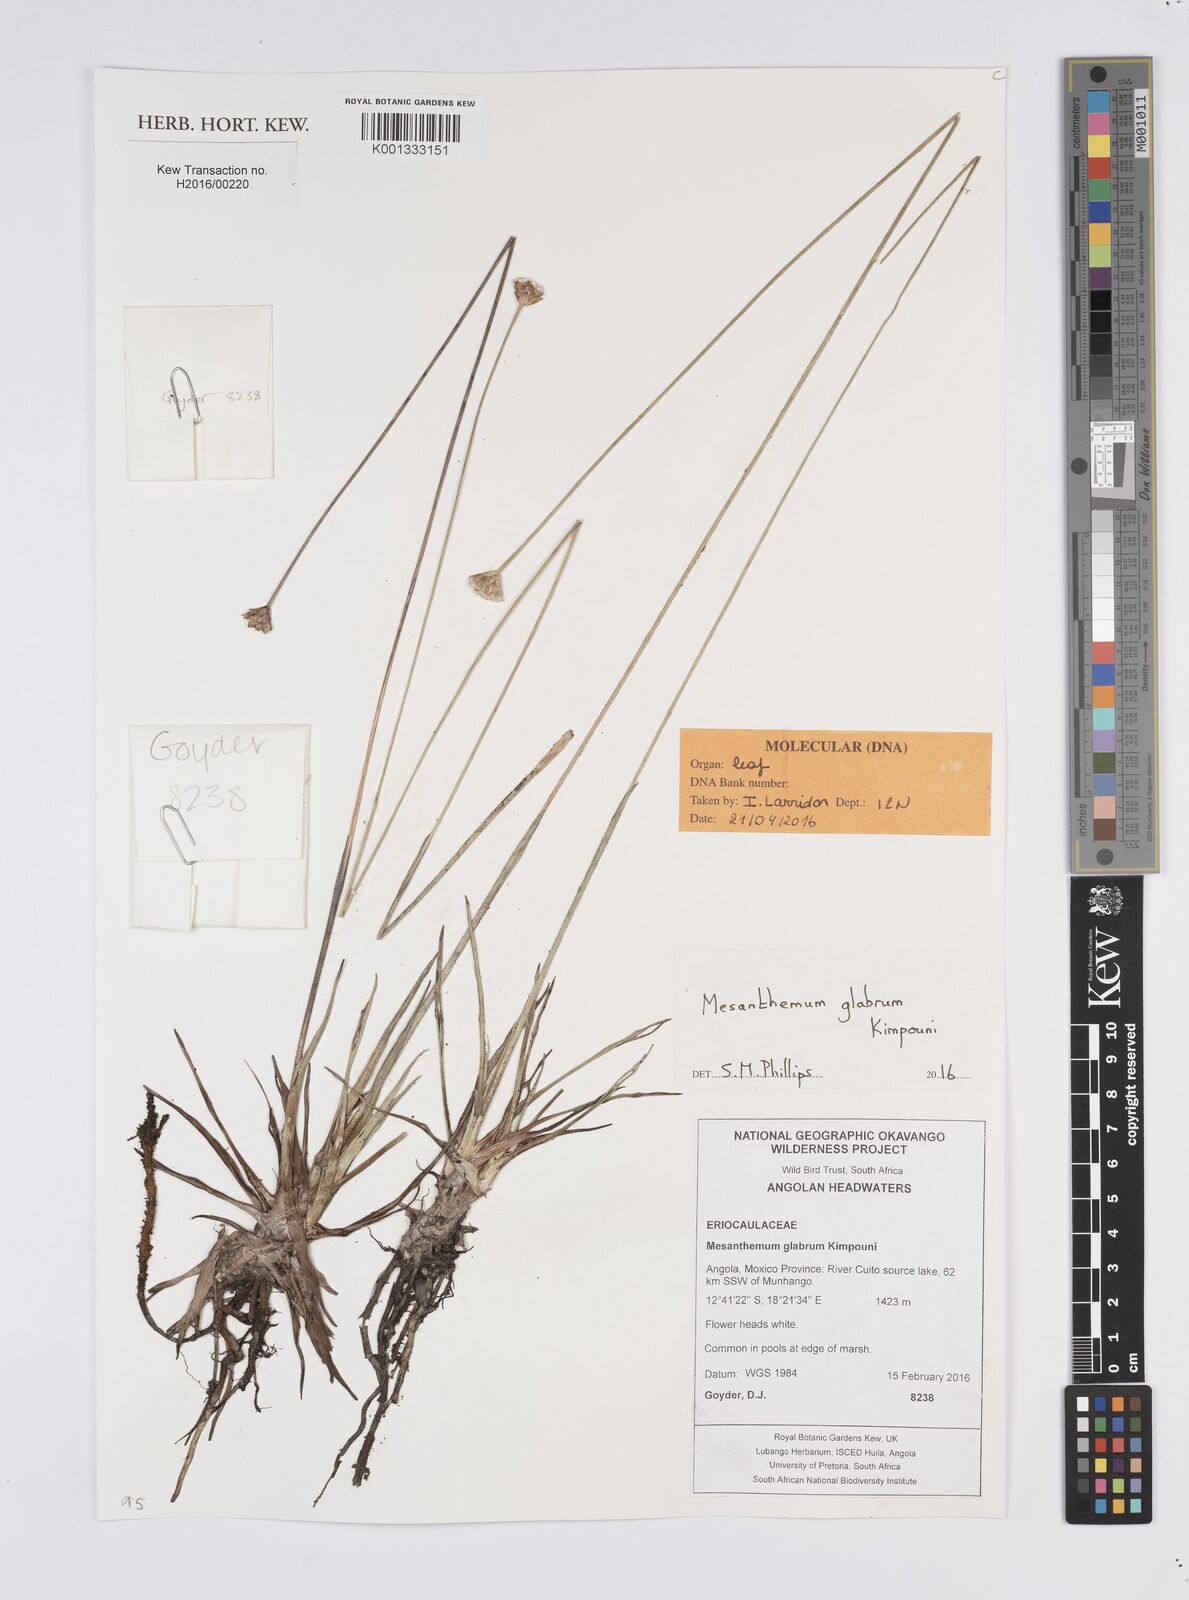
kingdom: Plantae
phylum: Tracheophyta
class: Liliopsida
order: Poales
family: Eriocaulaceae
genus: Mesanthemum
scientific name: Mesanthemum glabrum
